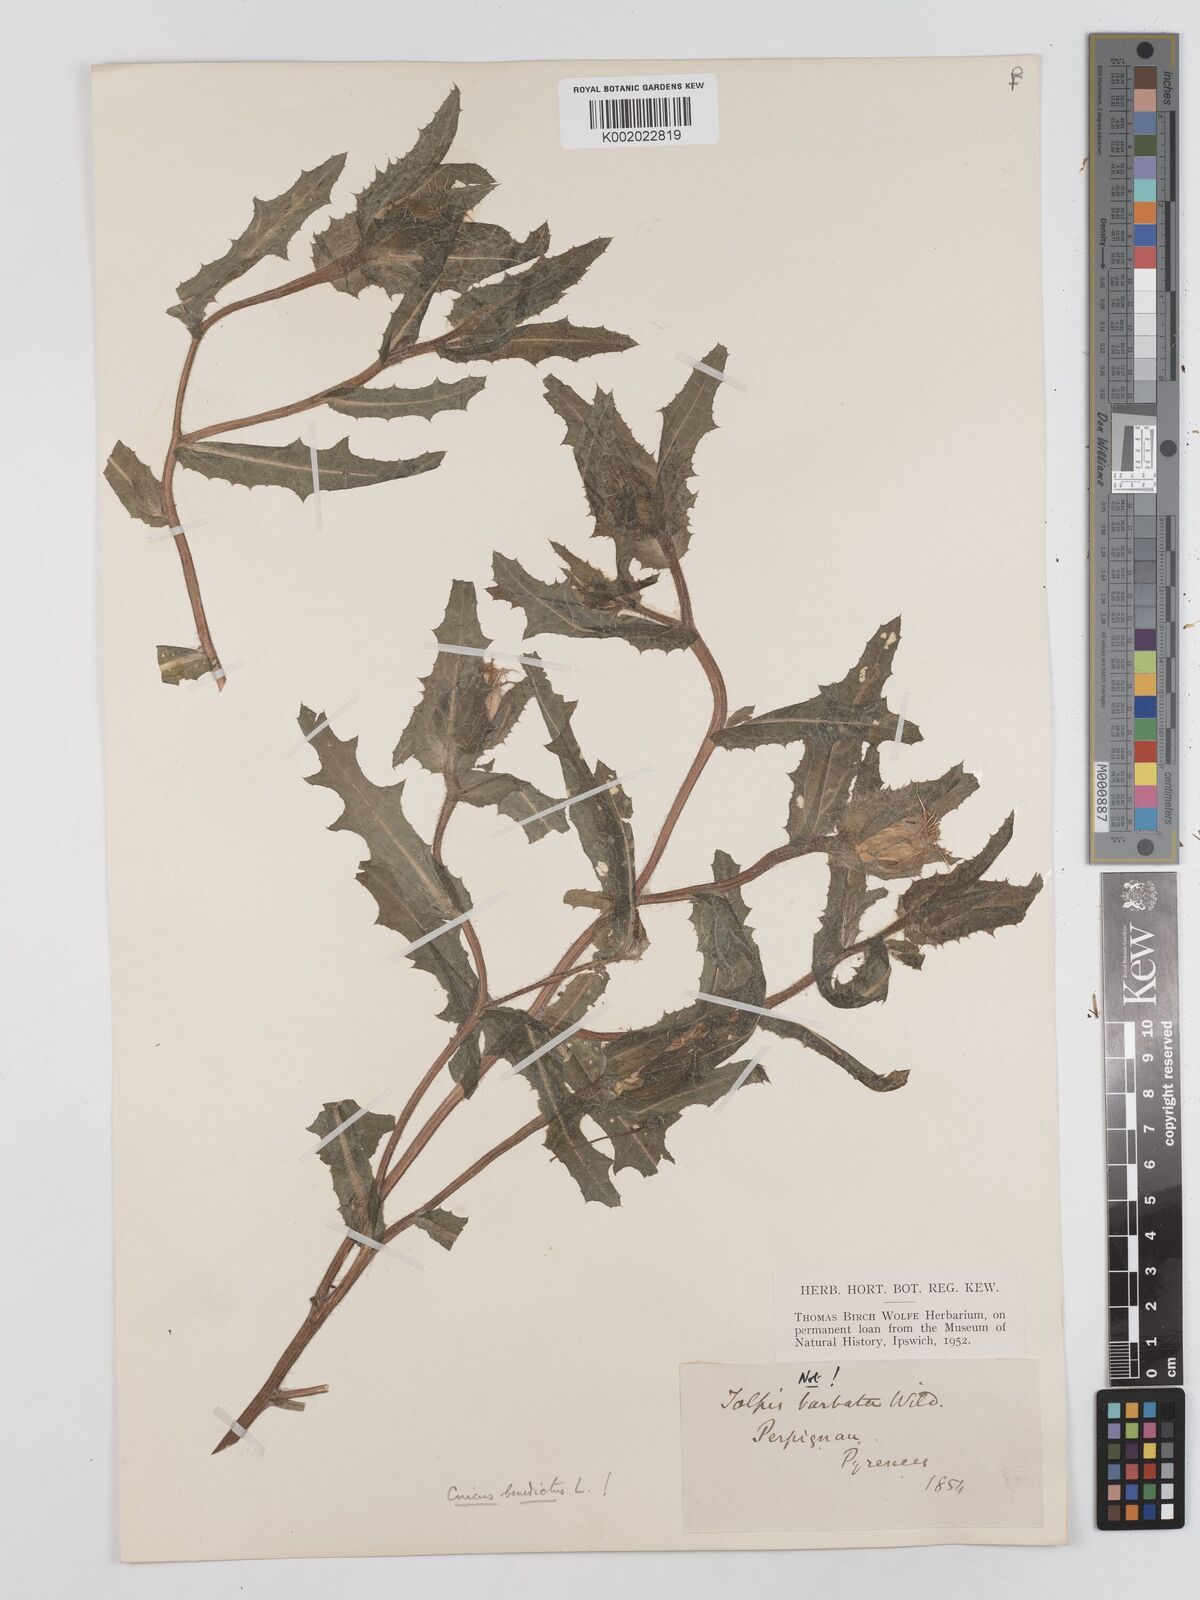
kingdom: Plantae
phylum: Tracheophyta
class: Magnoliopsida
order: Asterales
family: Asteraceae
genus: Centaurea
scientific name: Centaurea benedicta
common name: Blessed thistle
